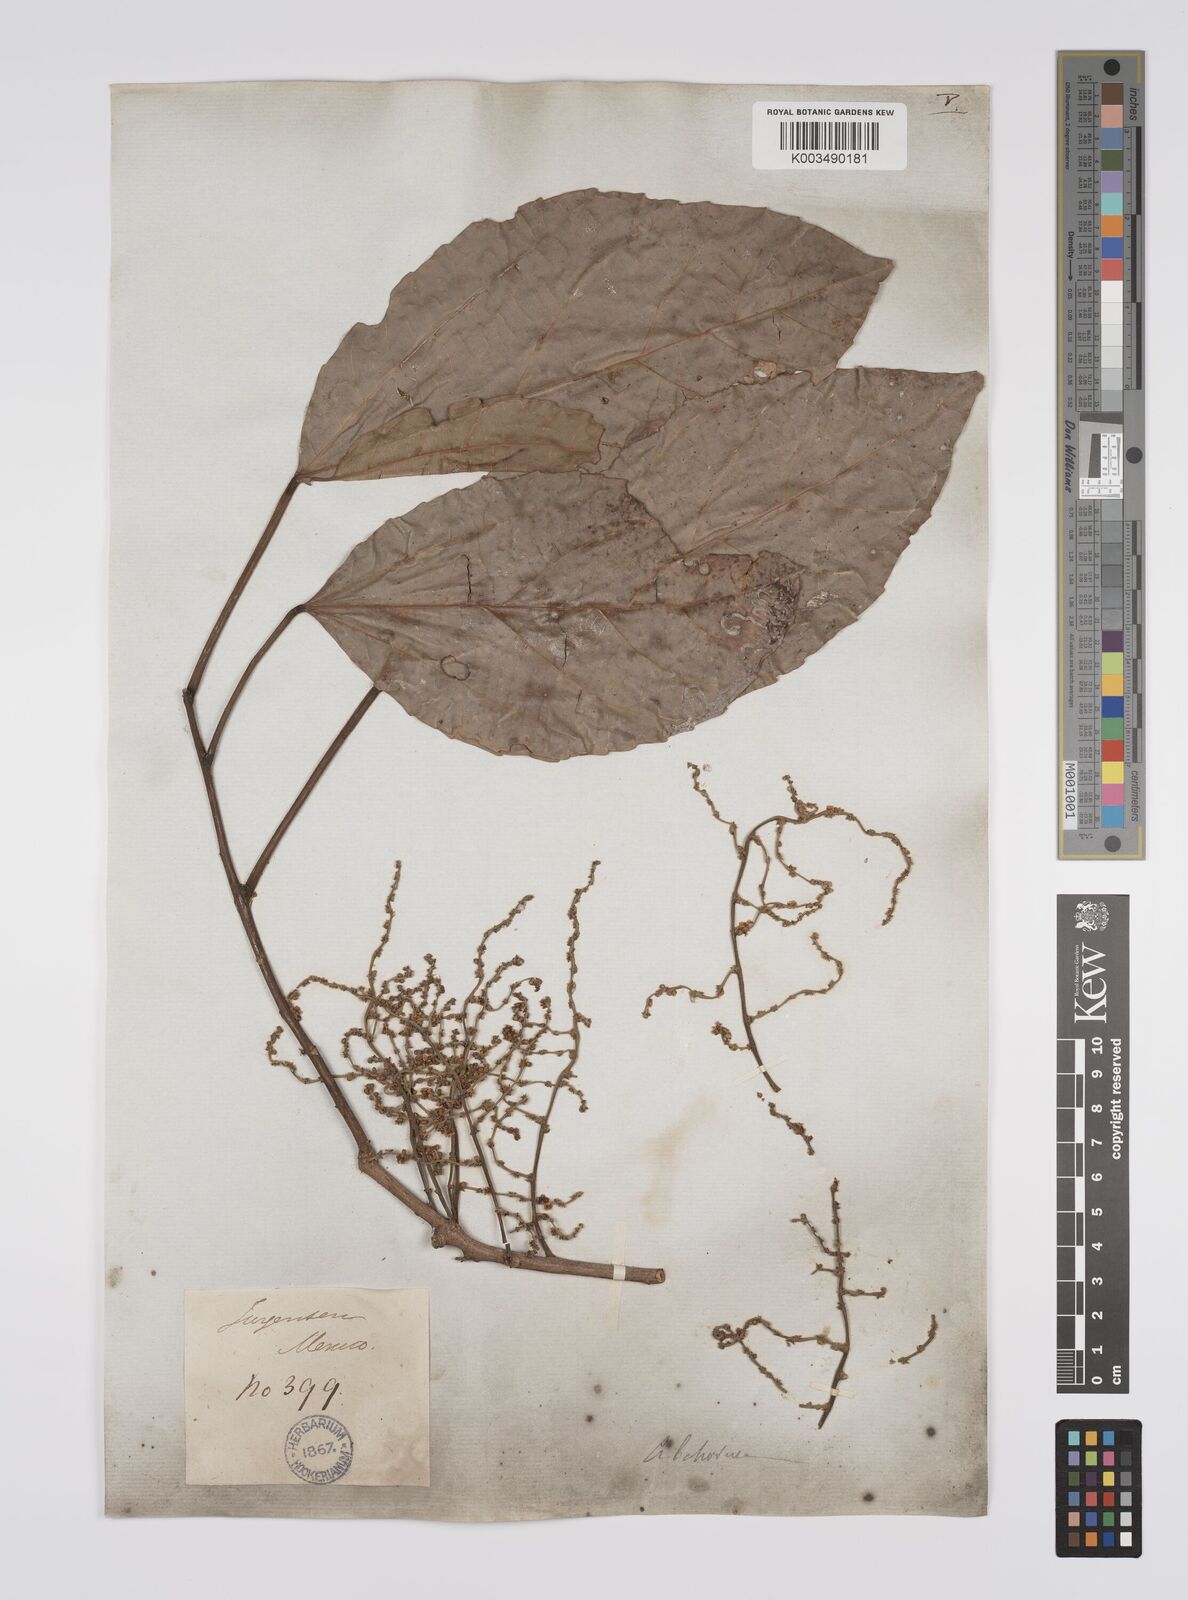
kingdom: Plantae
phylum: Tracheophyta
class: Magnoliopsida
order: Malpighiales
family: Euphorbiaceae
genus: Alchornea
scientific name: Alchornea latifolia
